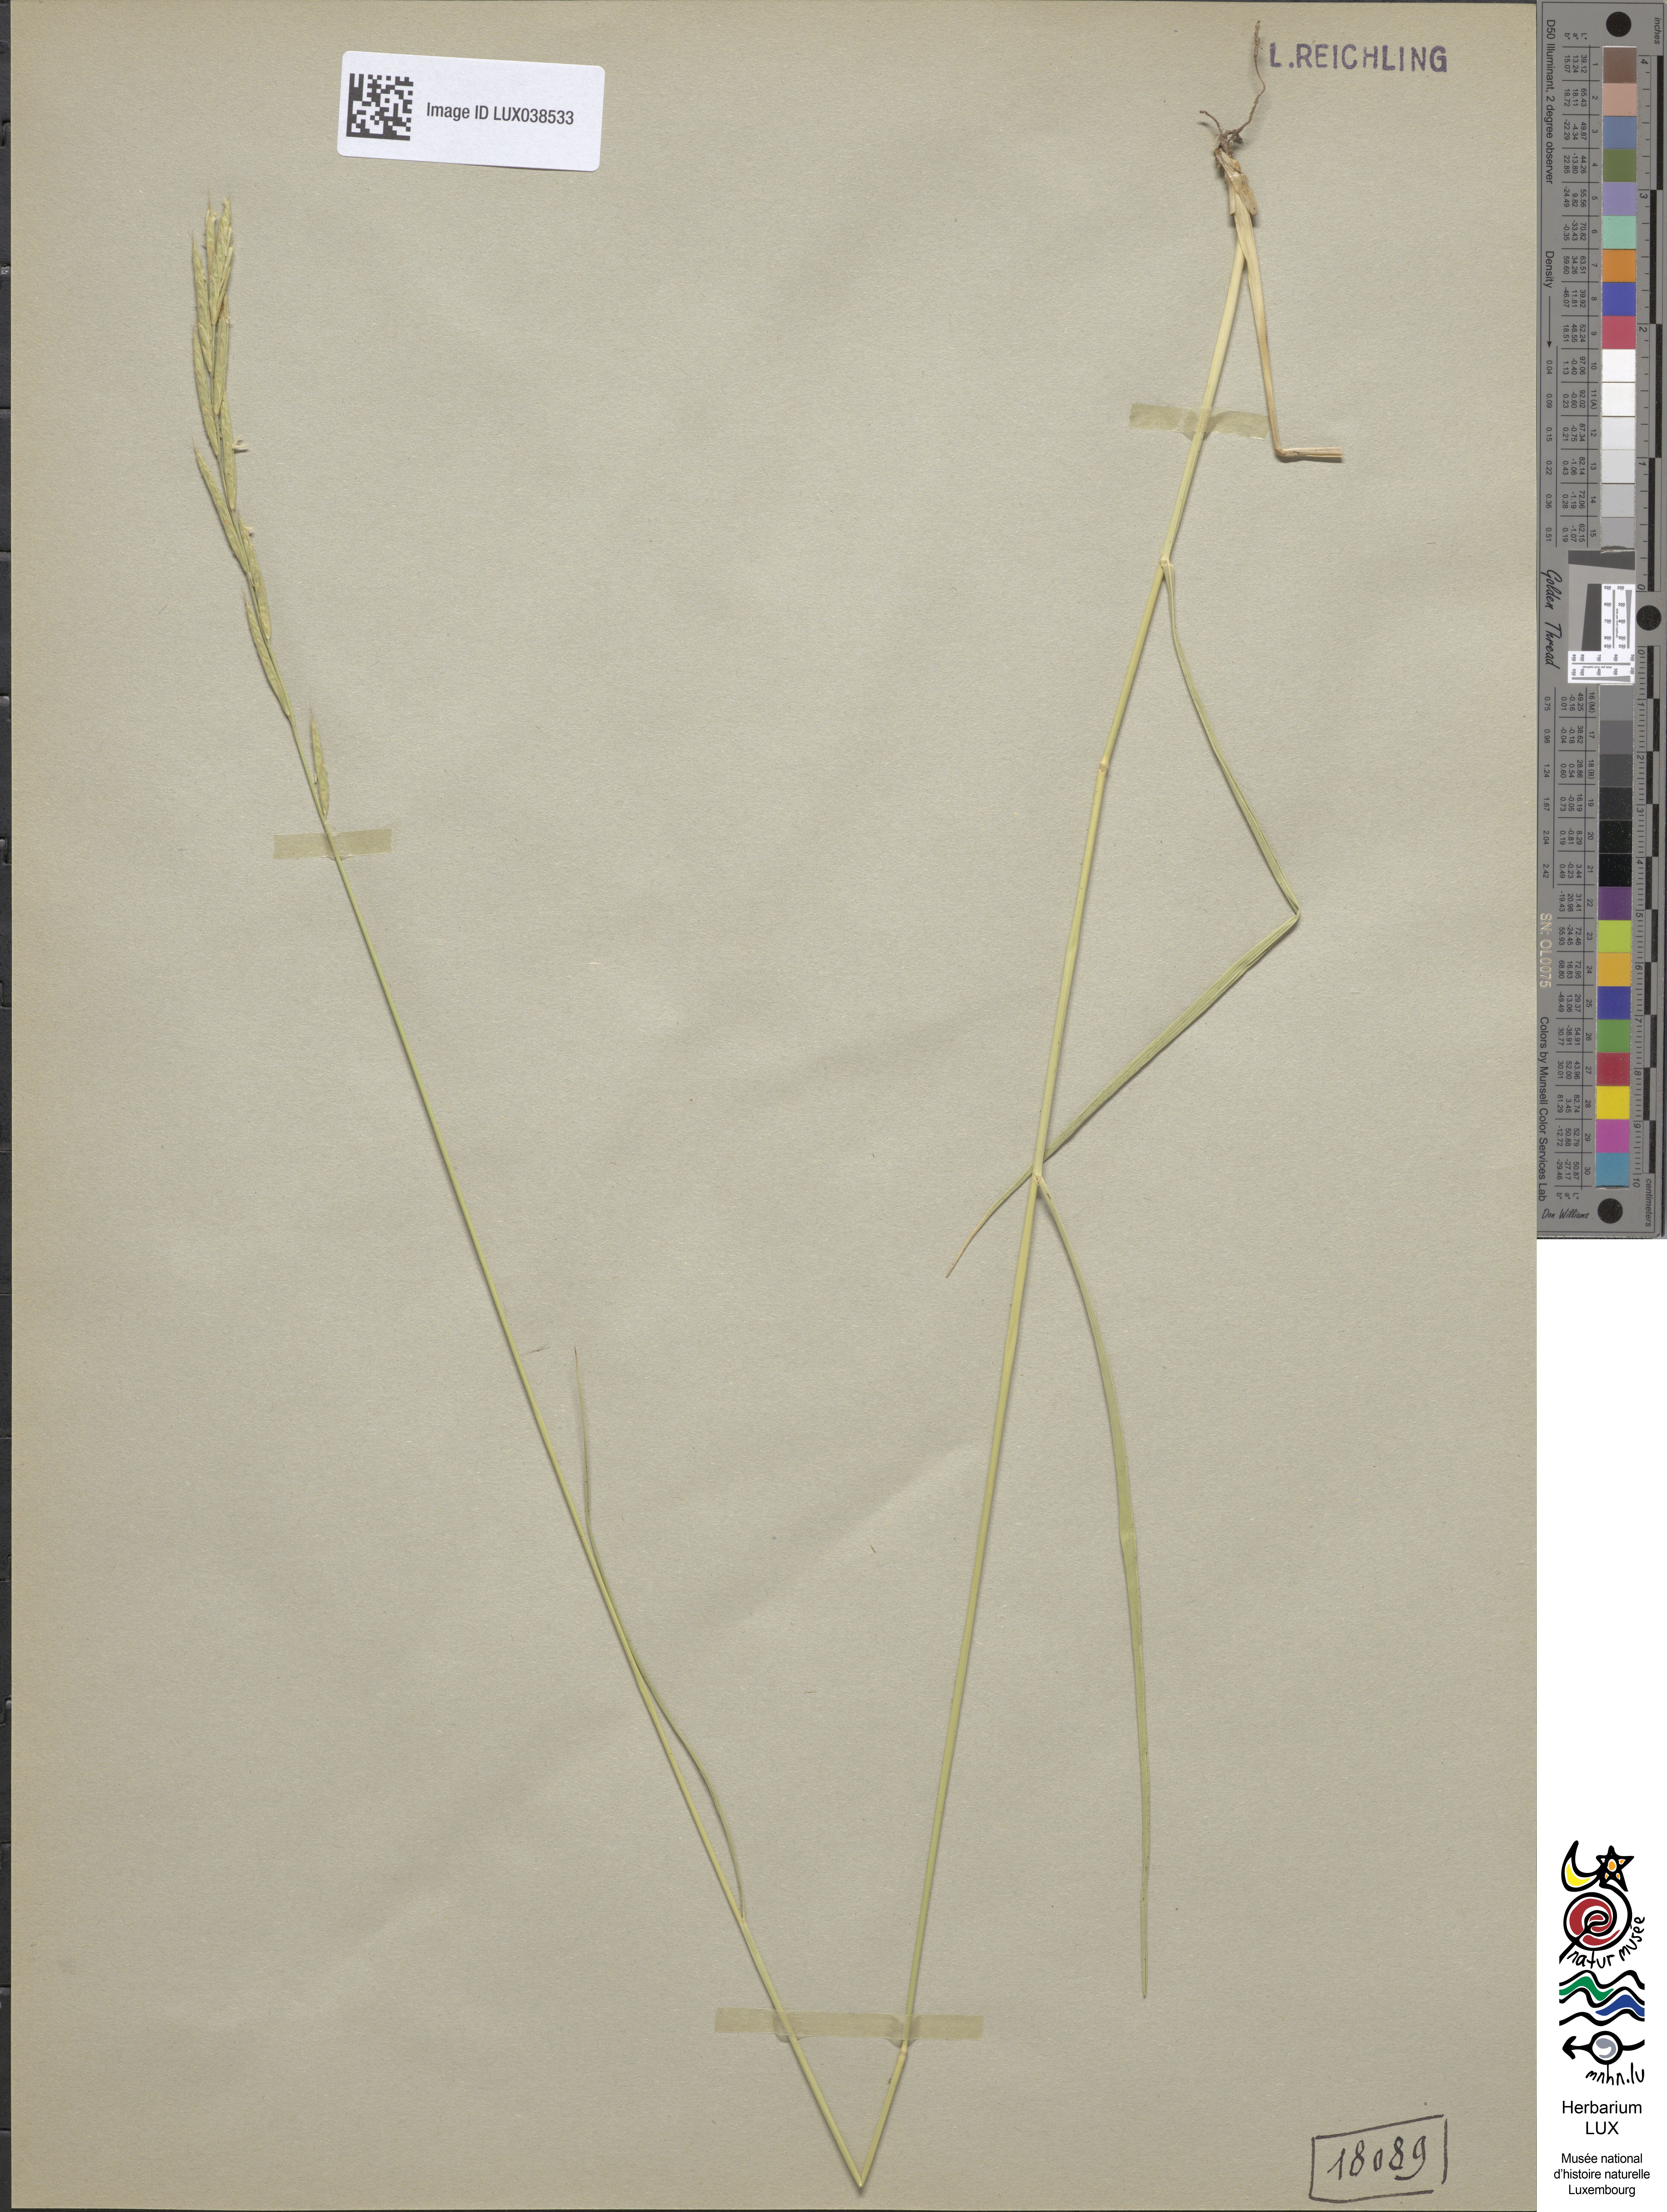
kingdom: Plantae
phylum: Tracheophyta
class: Liliopsida
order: Poales
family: Poaceae
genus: Brachypodium
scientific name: Brachypodium pinnatum
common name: Tor grass
